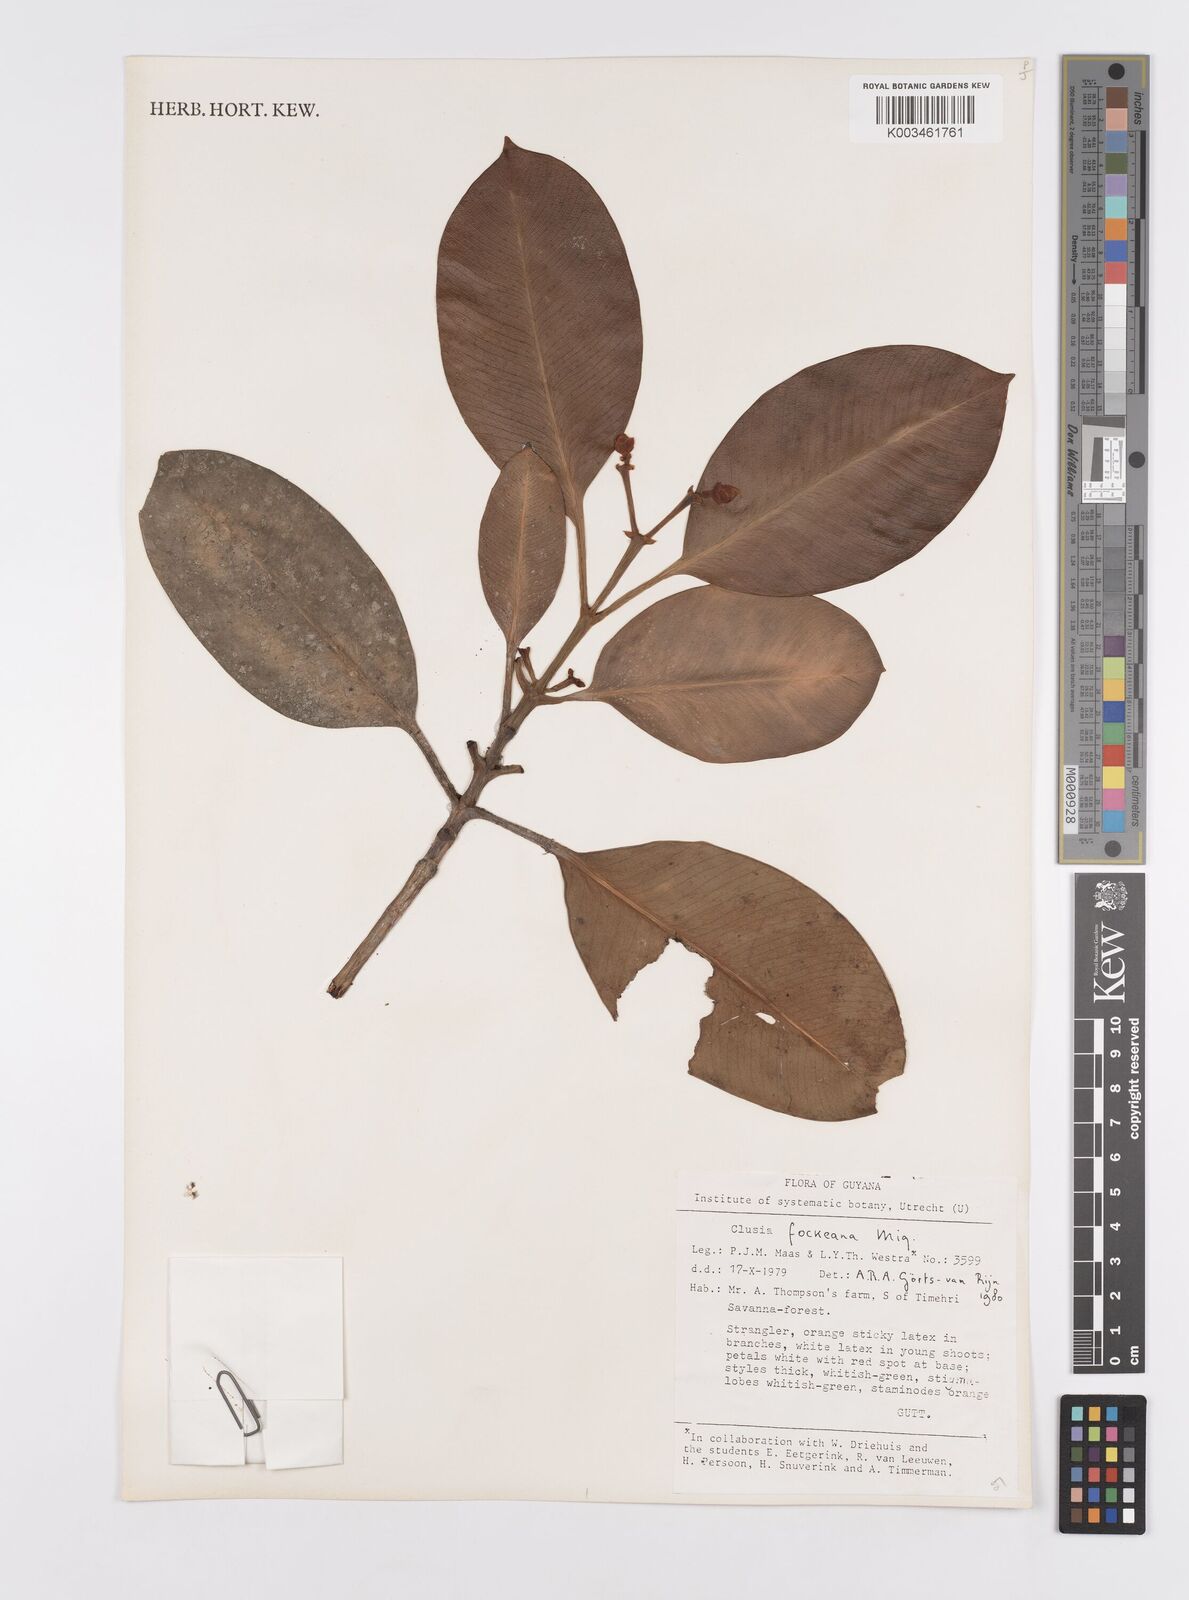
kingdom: Plantae
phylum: Tracheophyta
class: Magnoliopsida
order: Malpighiales
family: Clusiaceae
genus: Clusia
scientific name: Clusia fockeana
